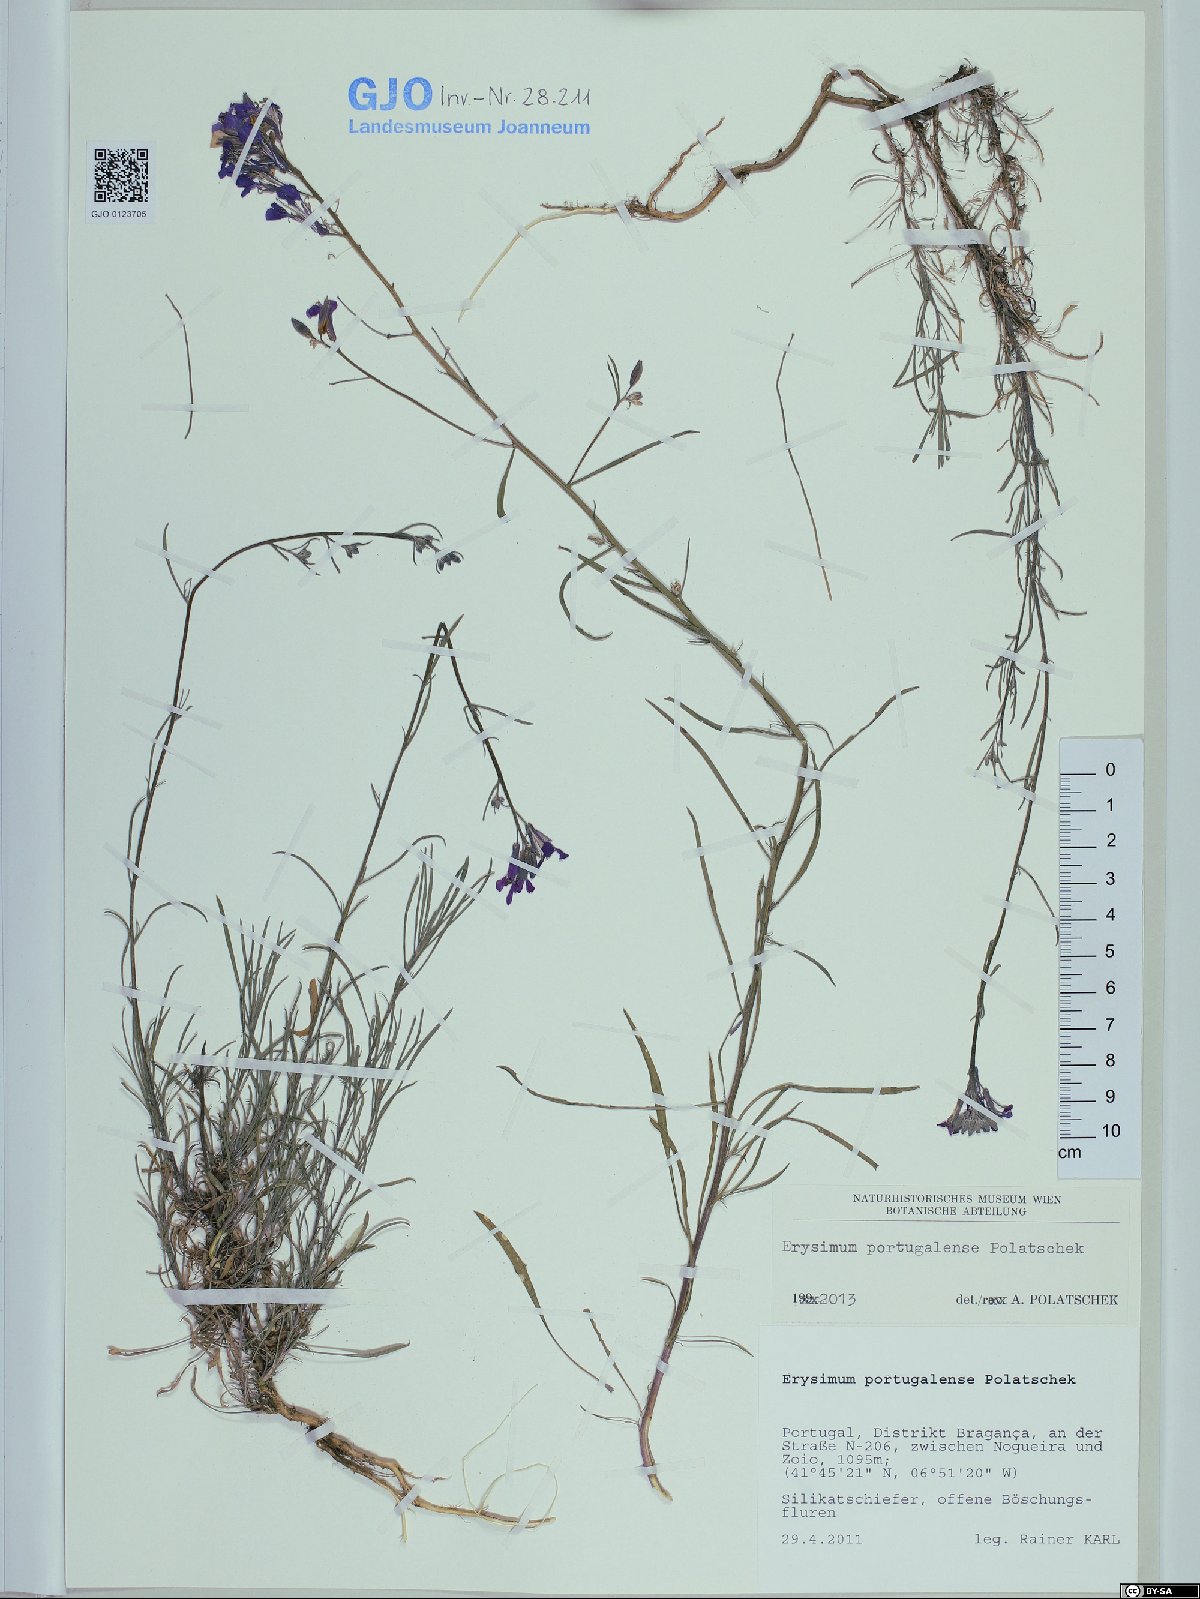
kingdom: Plantae
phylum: Tracheophyta
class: Magnoliopsida
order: Brassicales
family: Brassicaceae
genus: Erysimum
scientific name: Erysimum portugalense
